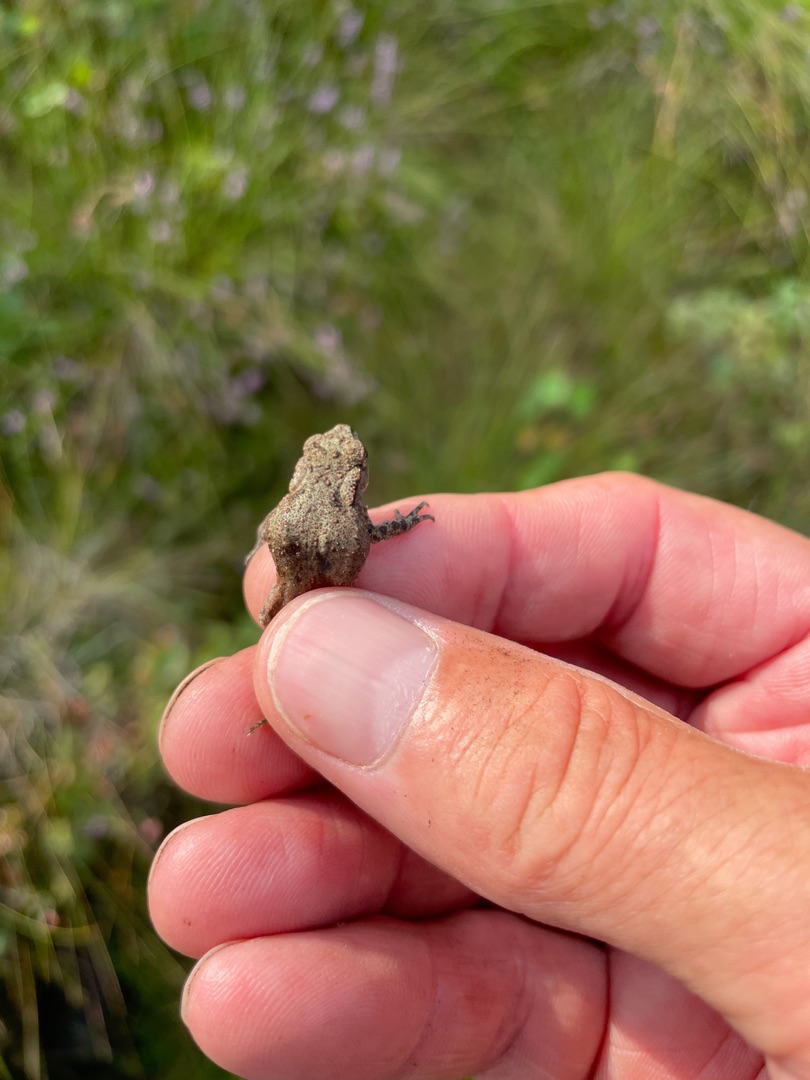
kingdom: Animalia
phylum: Chordata
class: Amphibia
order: Anura
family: Bufonidae
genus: Bufo
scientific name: Bufo bufo
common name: Skrubtudse
